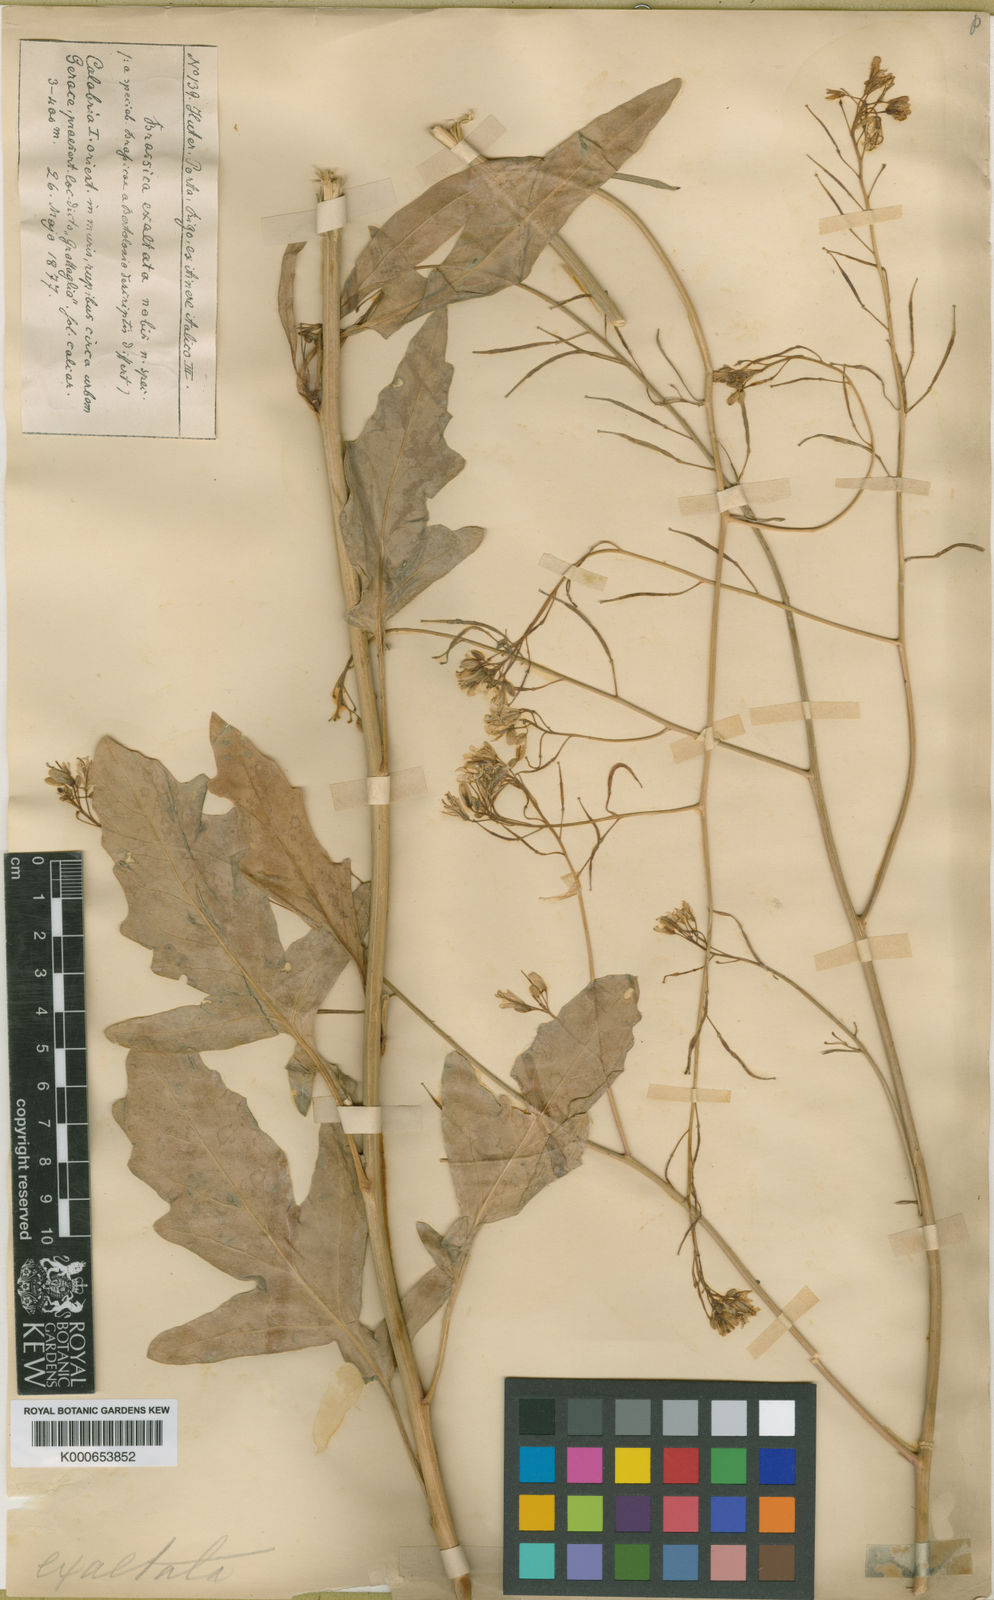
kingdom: Plantae
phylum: Tracheophyta
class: Magnoliopsida
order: Brassicales
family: Brassicaceae
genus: Erucastrum
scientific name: Erucastrum virgatum
